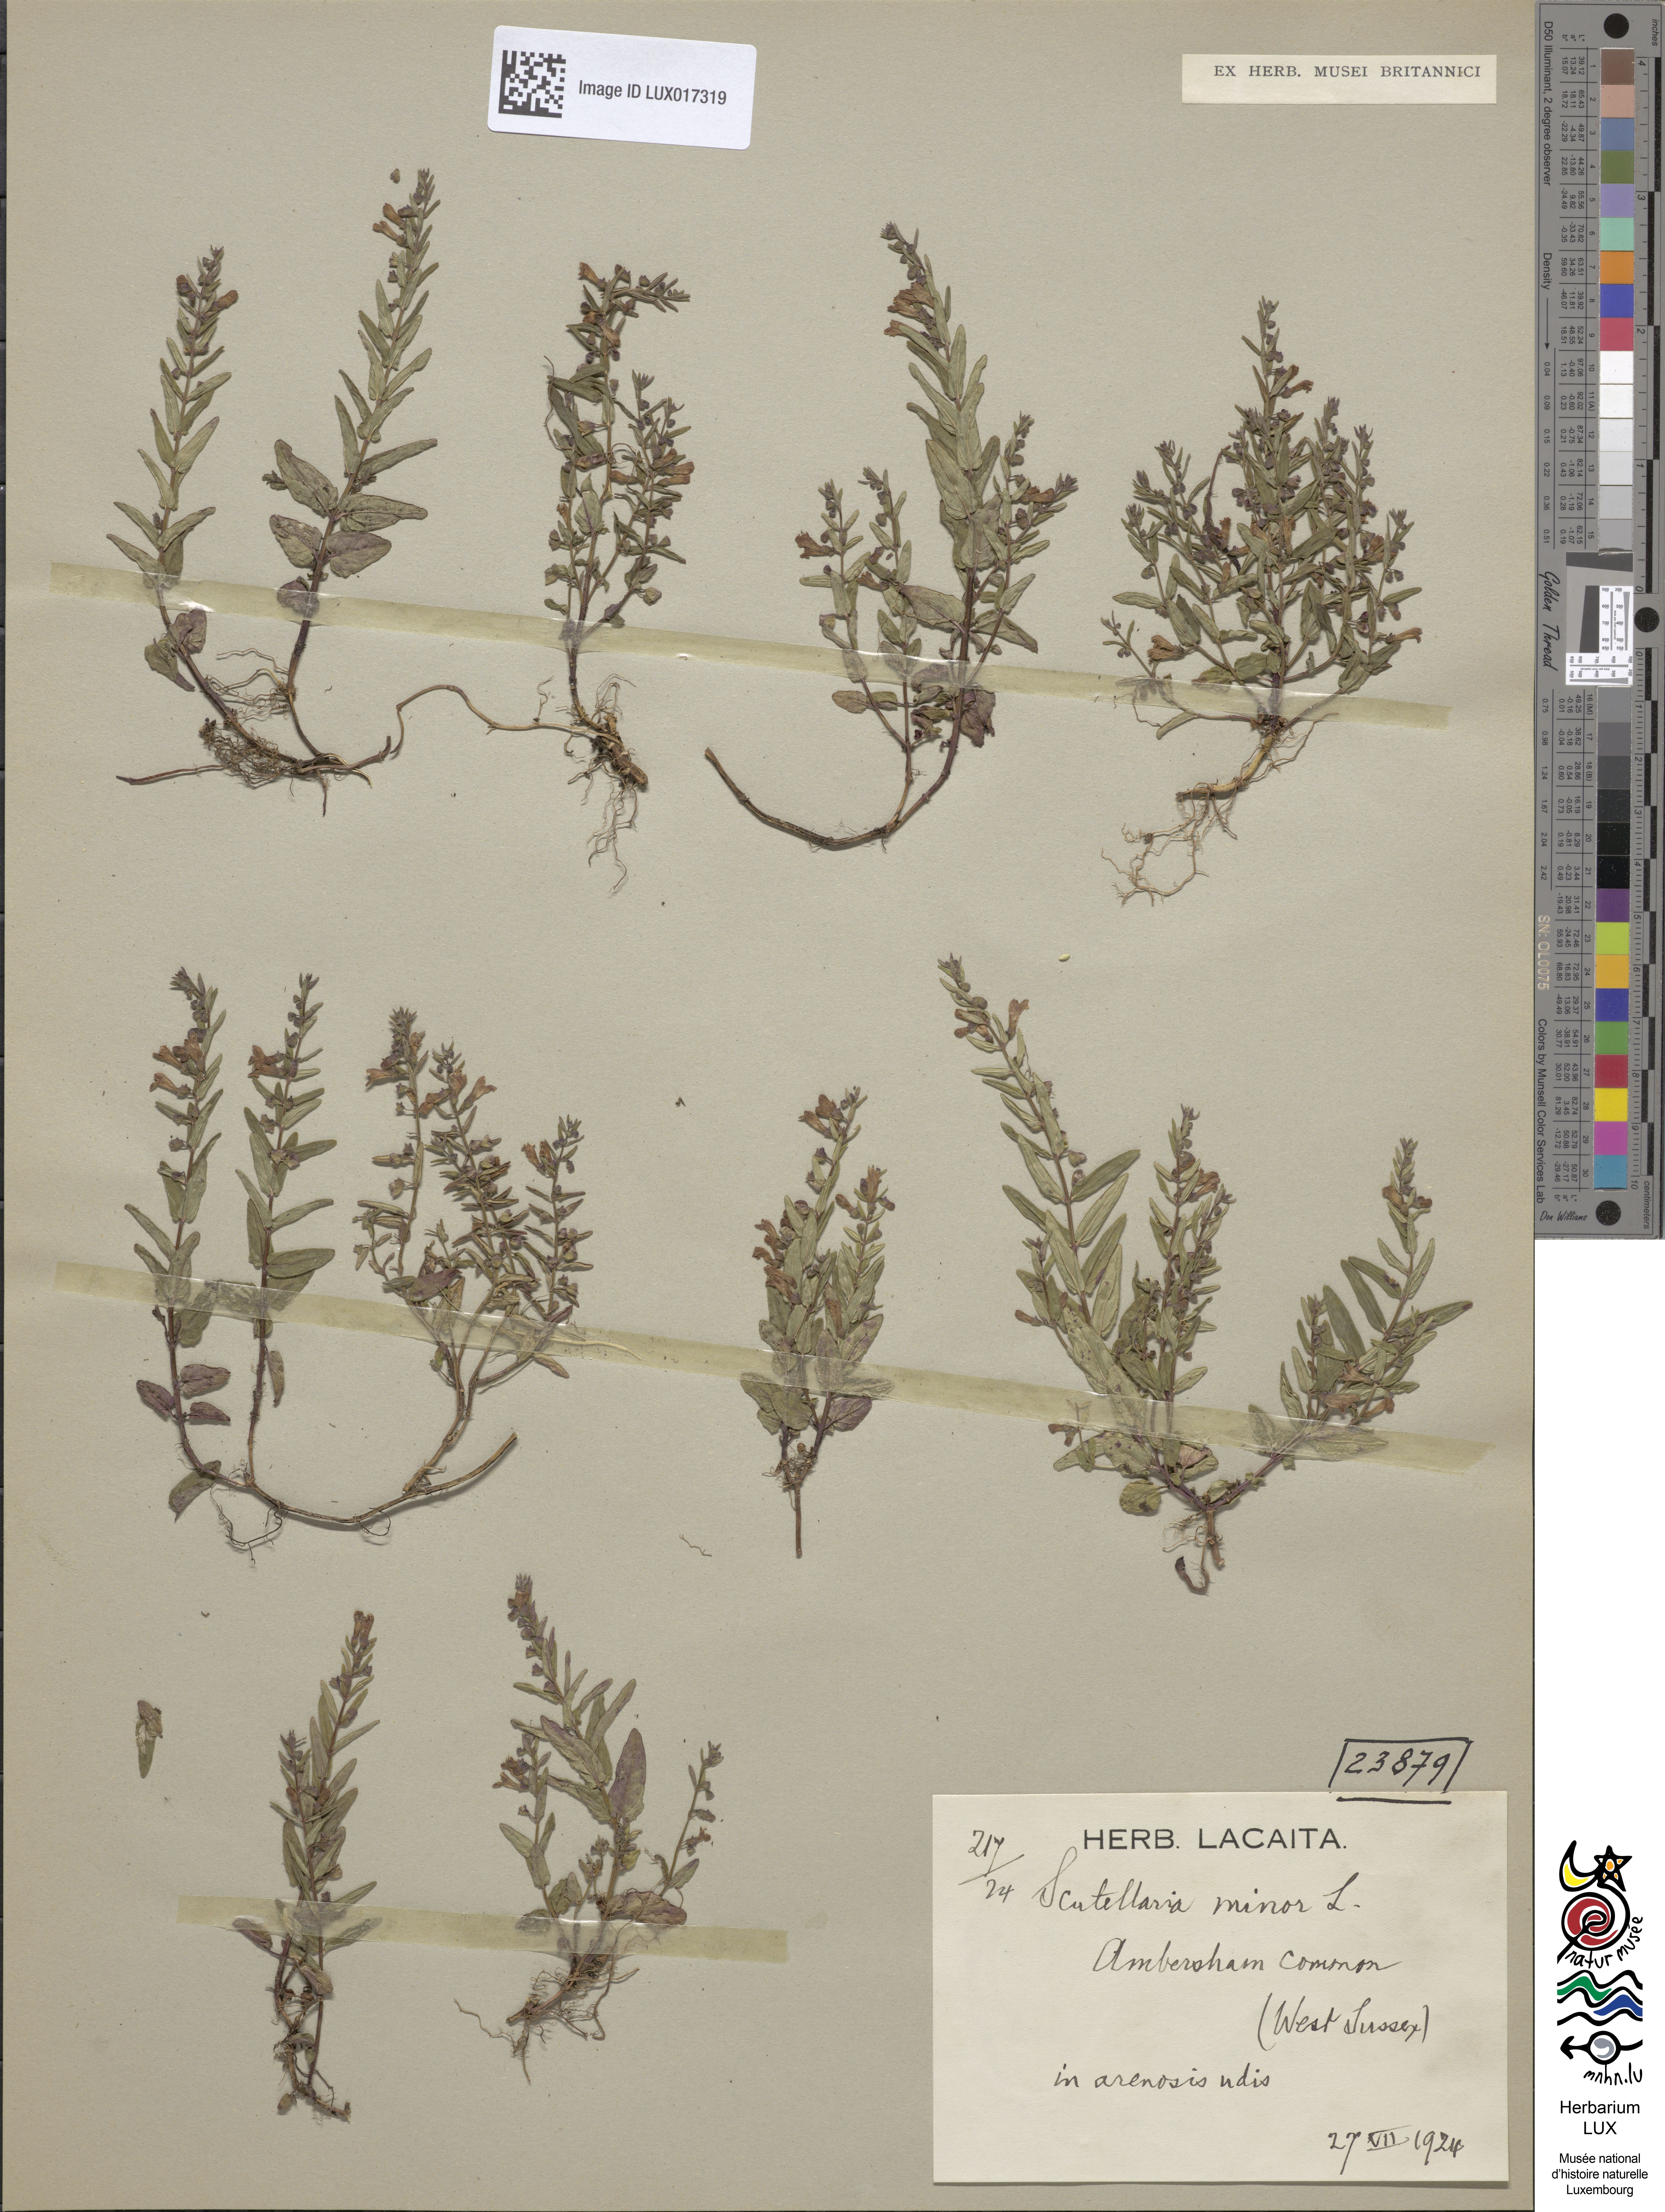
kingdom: Plantae
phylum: Tracheophyta
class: Magnoliopsida
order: Lamiales
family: Lamiaceae
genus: Scutellaria
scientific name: Scutellaria minor
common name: Lesser skullcap
